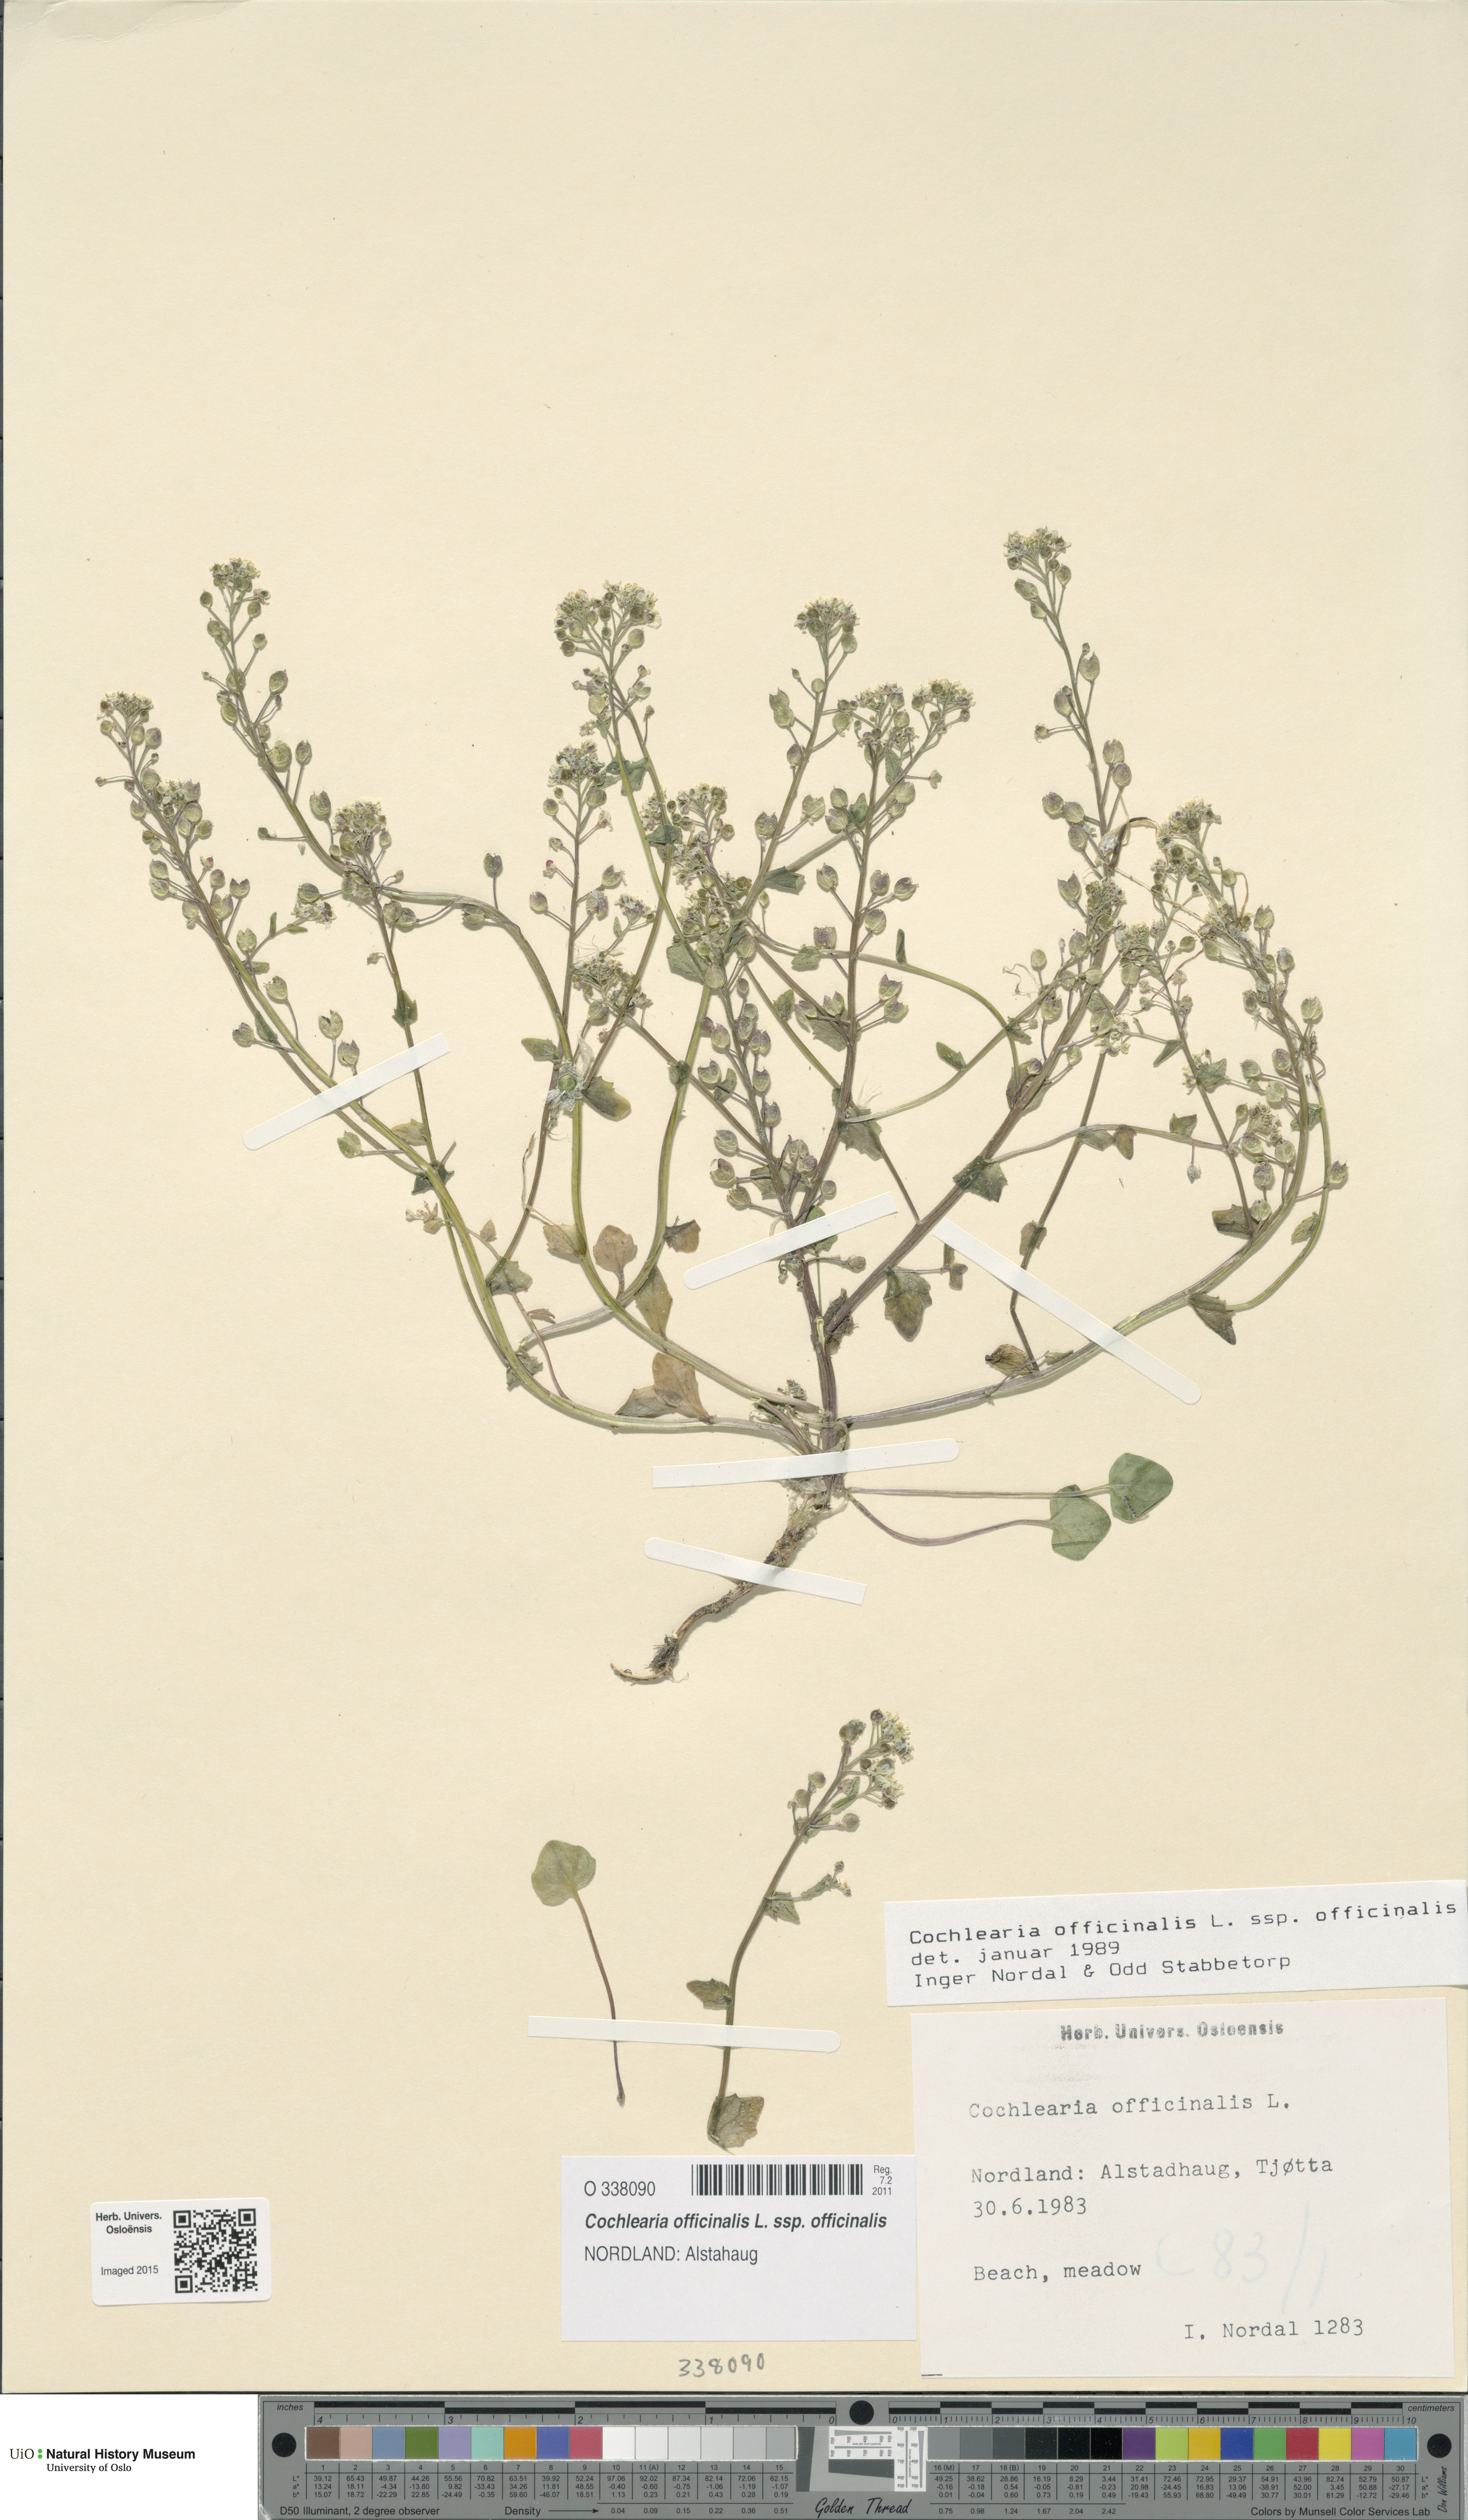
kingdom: Plantae
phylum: Tracheophyta
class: Magnoliopsida
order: Brassicales
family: Brassicaceae
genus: Cochlearia
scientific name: Cochlearia officinalis
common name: Scurvy-grass
